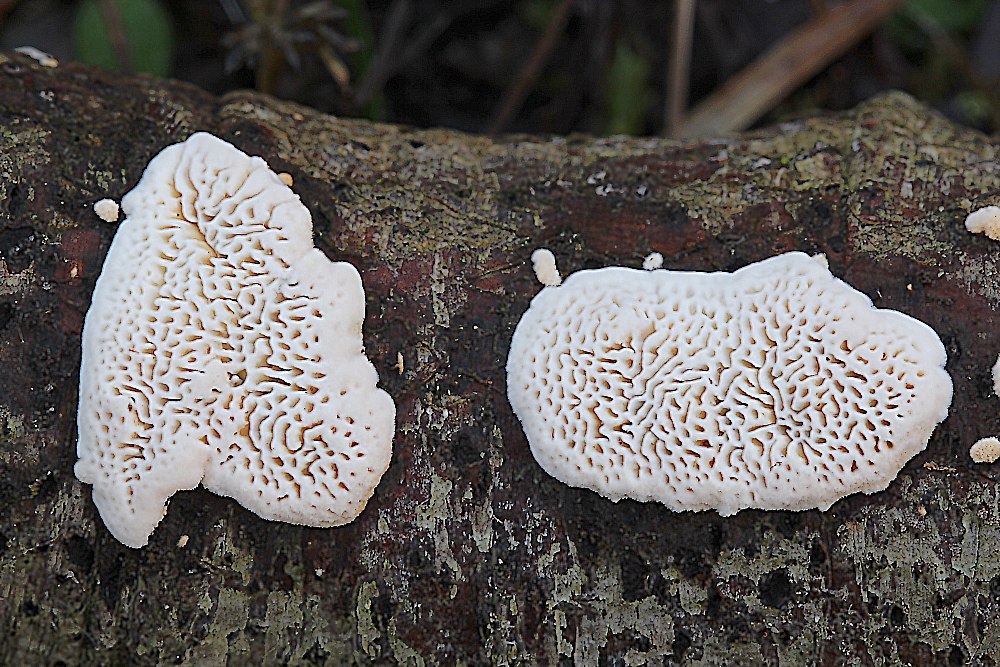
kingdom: Fungi
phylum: Basidiomycota
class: Agaricomycetes
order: Polyporales
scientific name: Polyporales
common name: poresvampordenen
